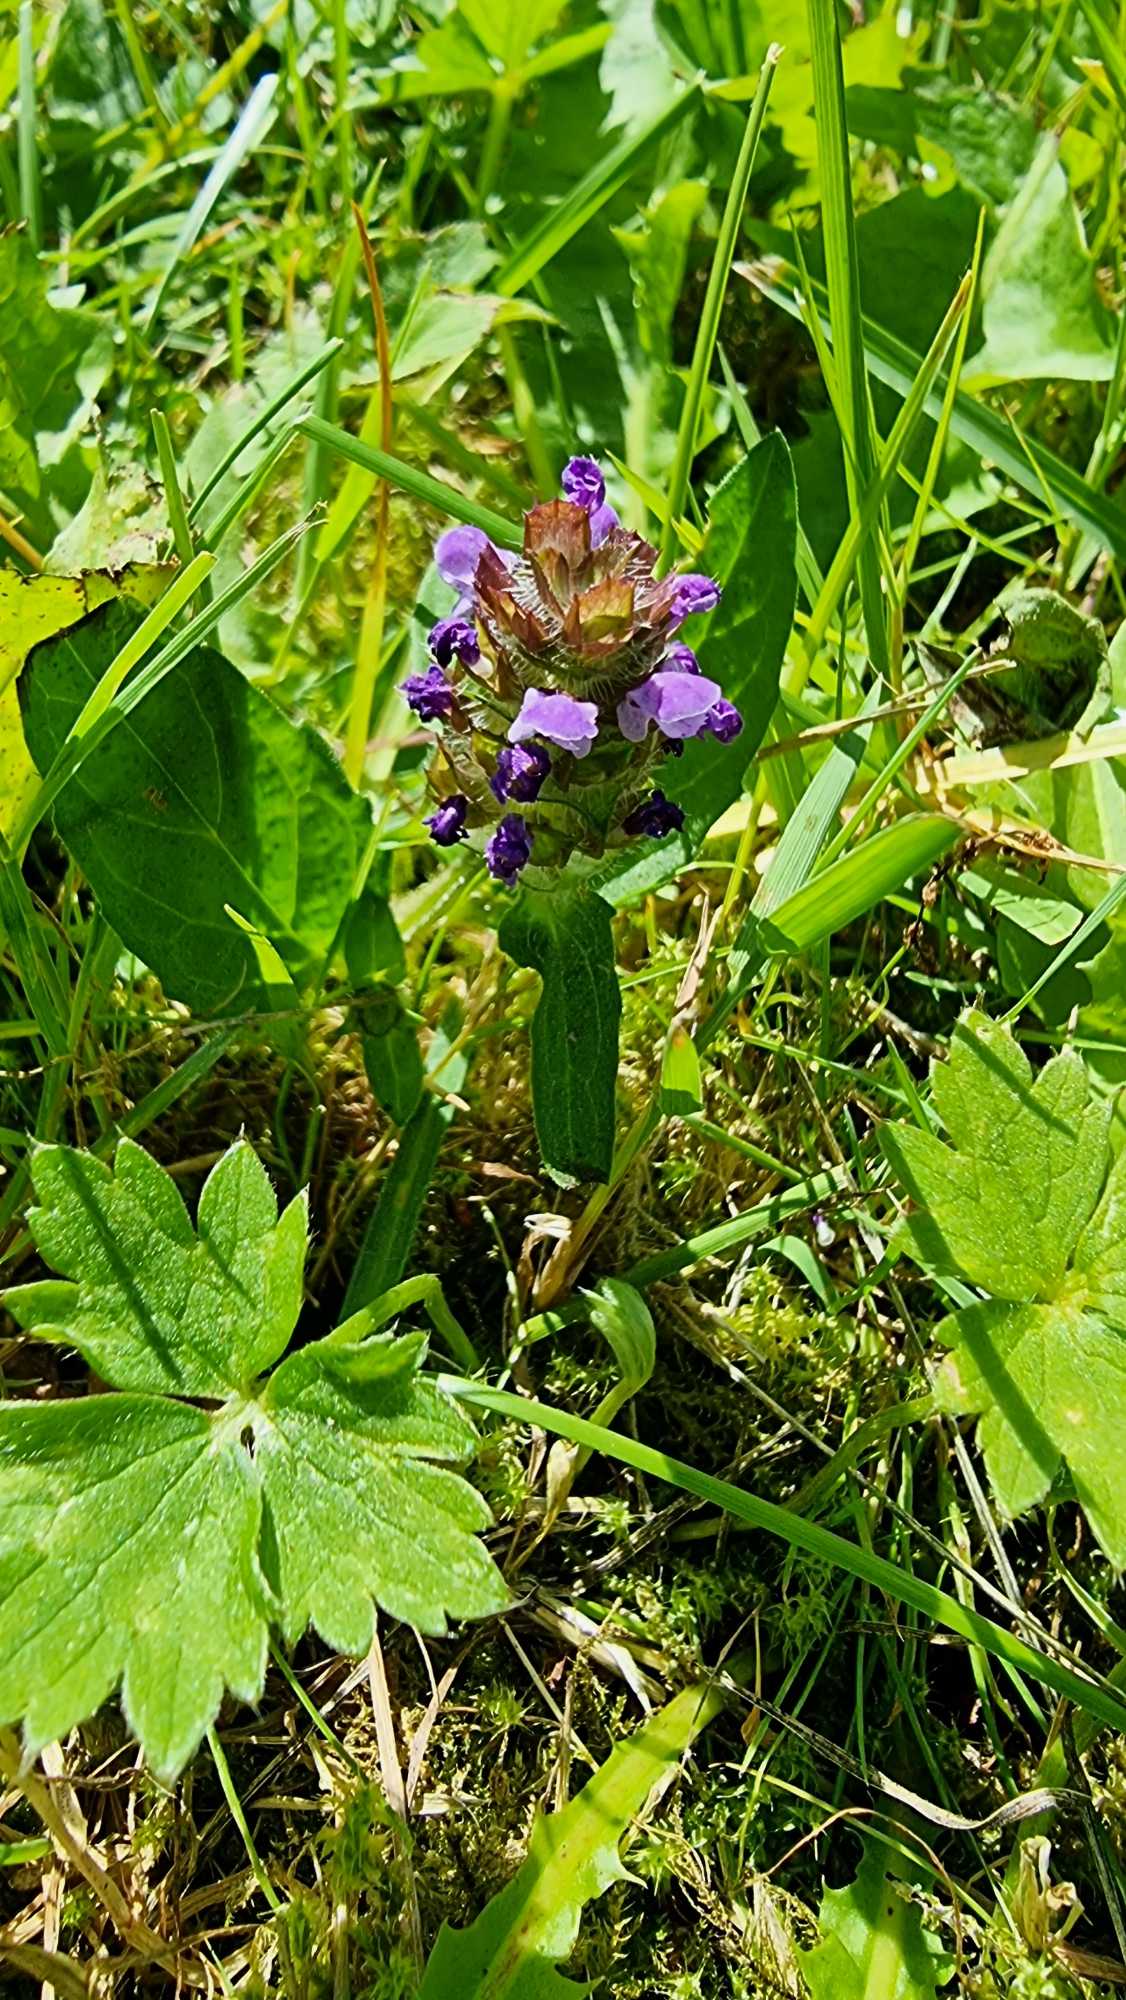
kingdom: Plantae
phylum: Tracheophyta
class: Magnoliopsida
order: Lamiales
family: Lamiaceae
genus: Prunella
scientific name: Prunella vulgaris
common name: Almindelig brunelle
